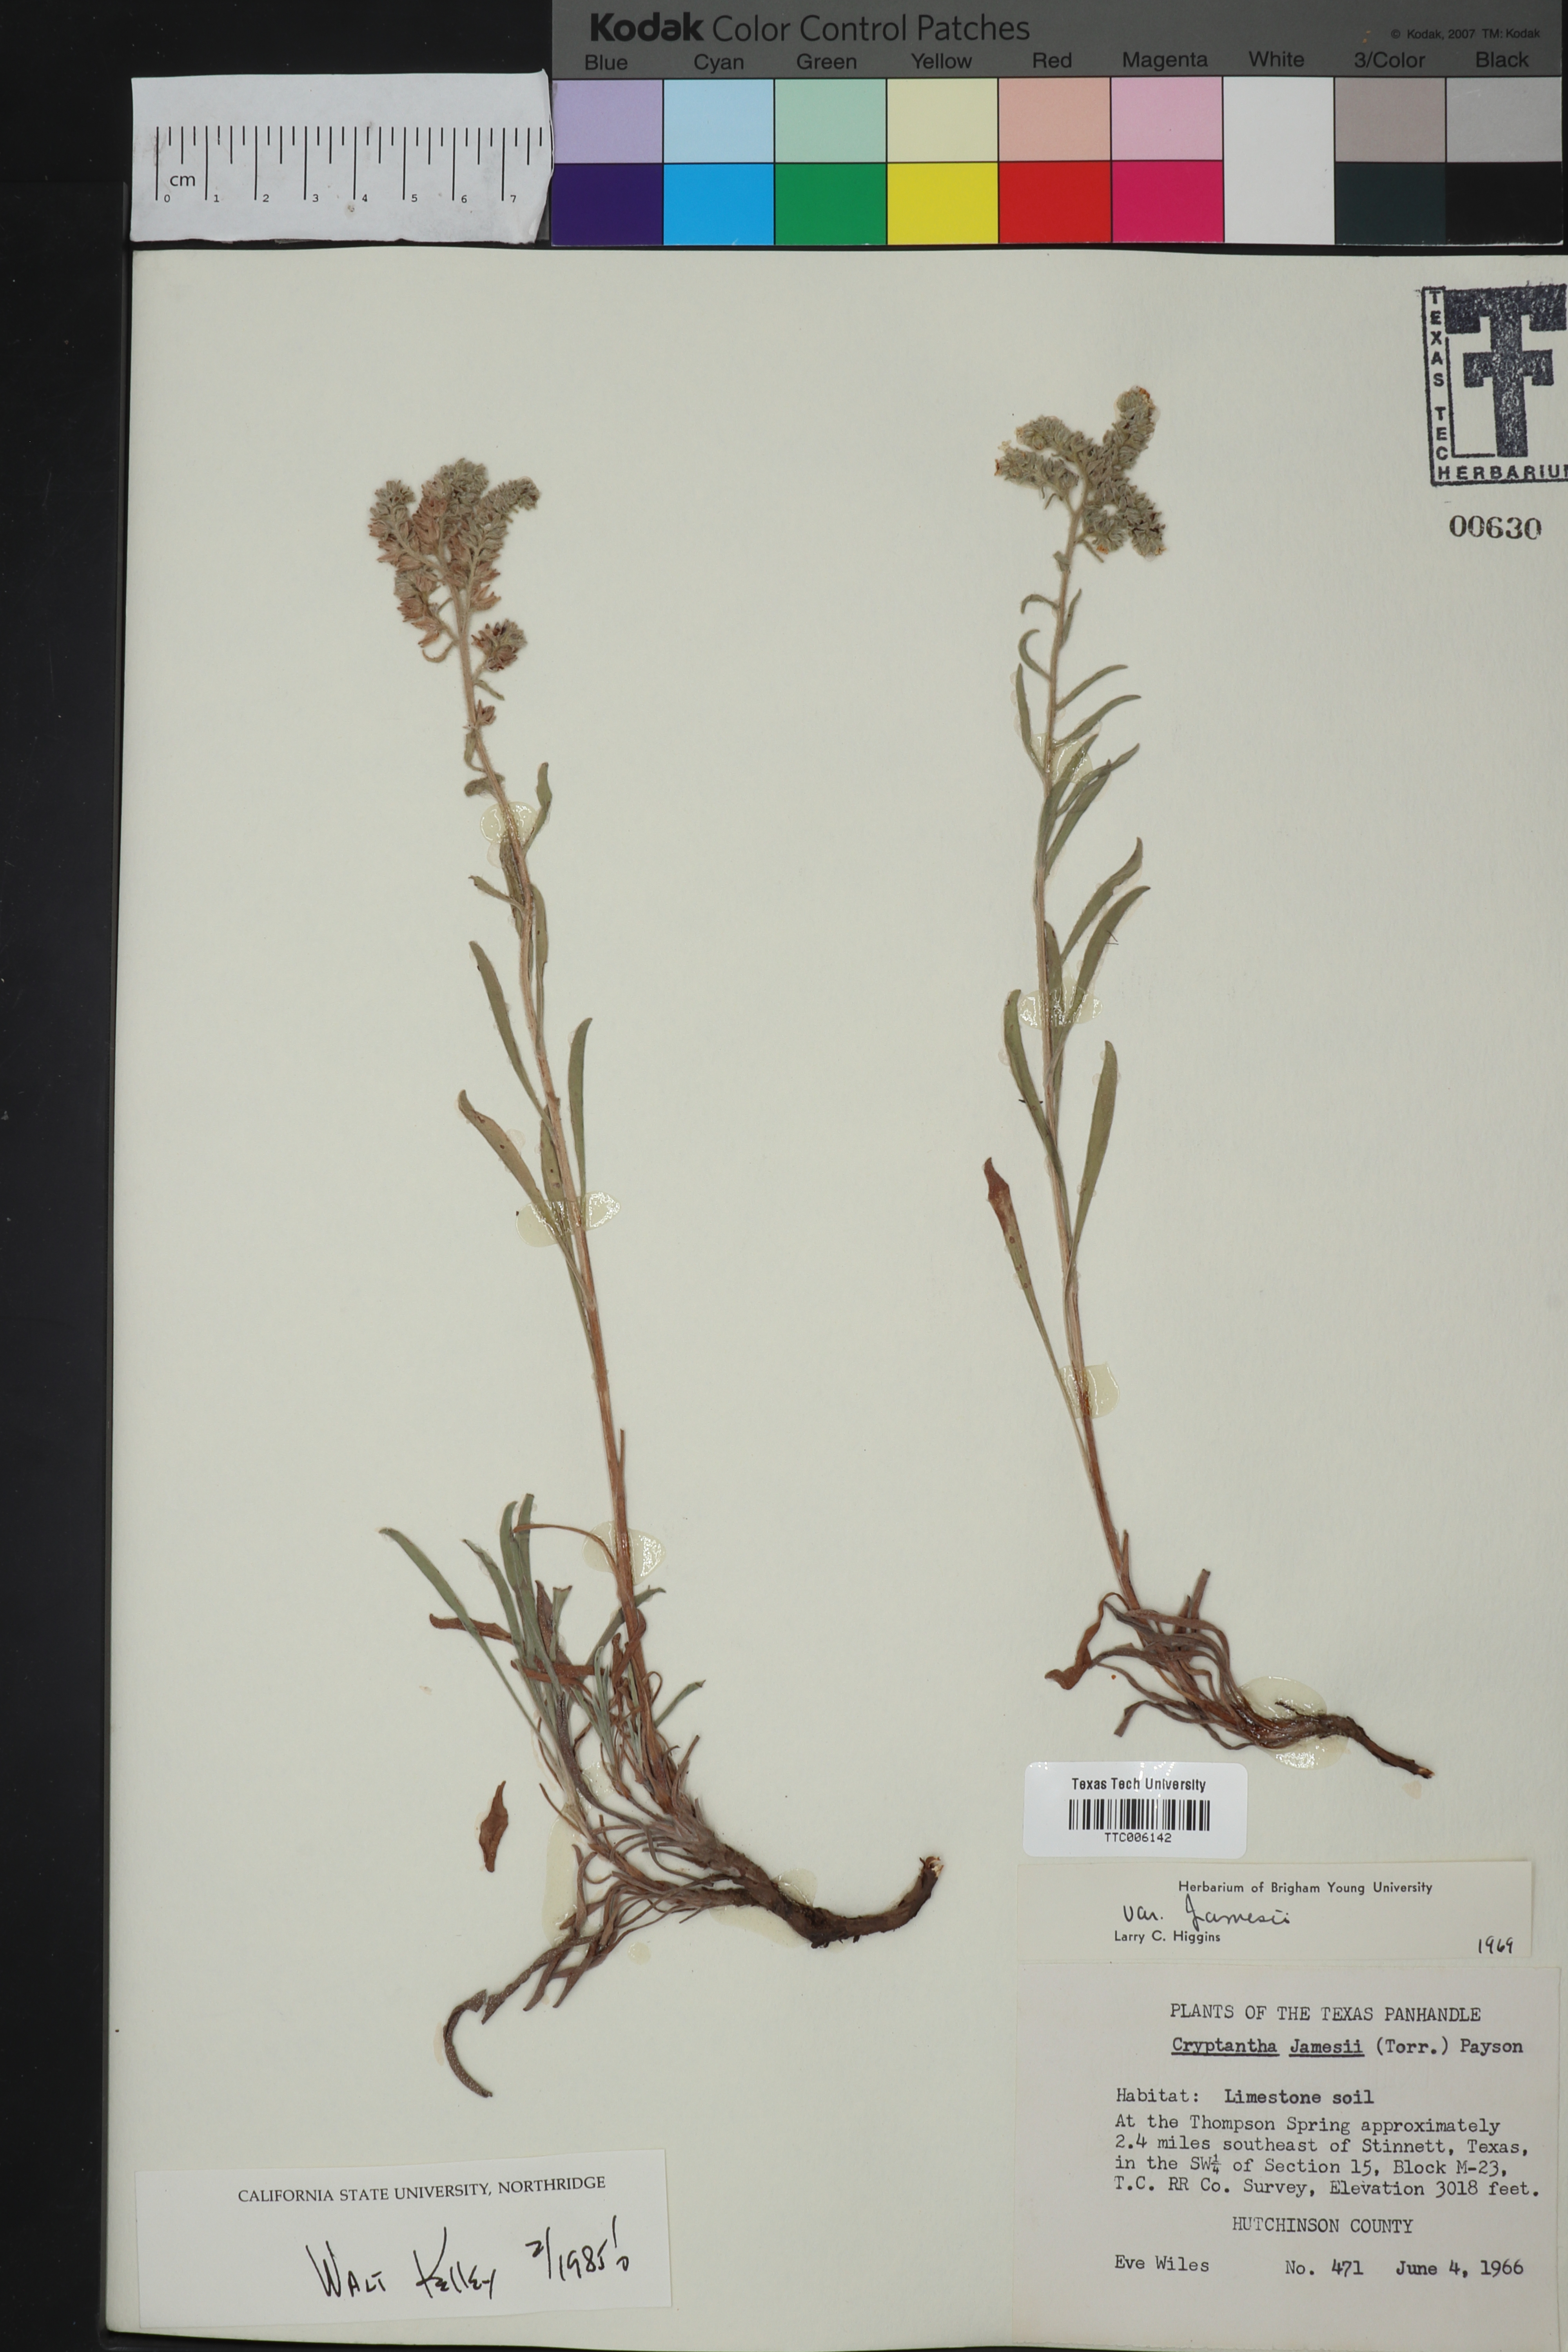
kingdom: Plantae
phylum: Tracheophyta
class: Magnoliopsida
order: Boraginales
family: Boraginaceae
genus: Oreocarya
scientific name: Oreocarya suffruticosa
